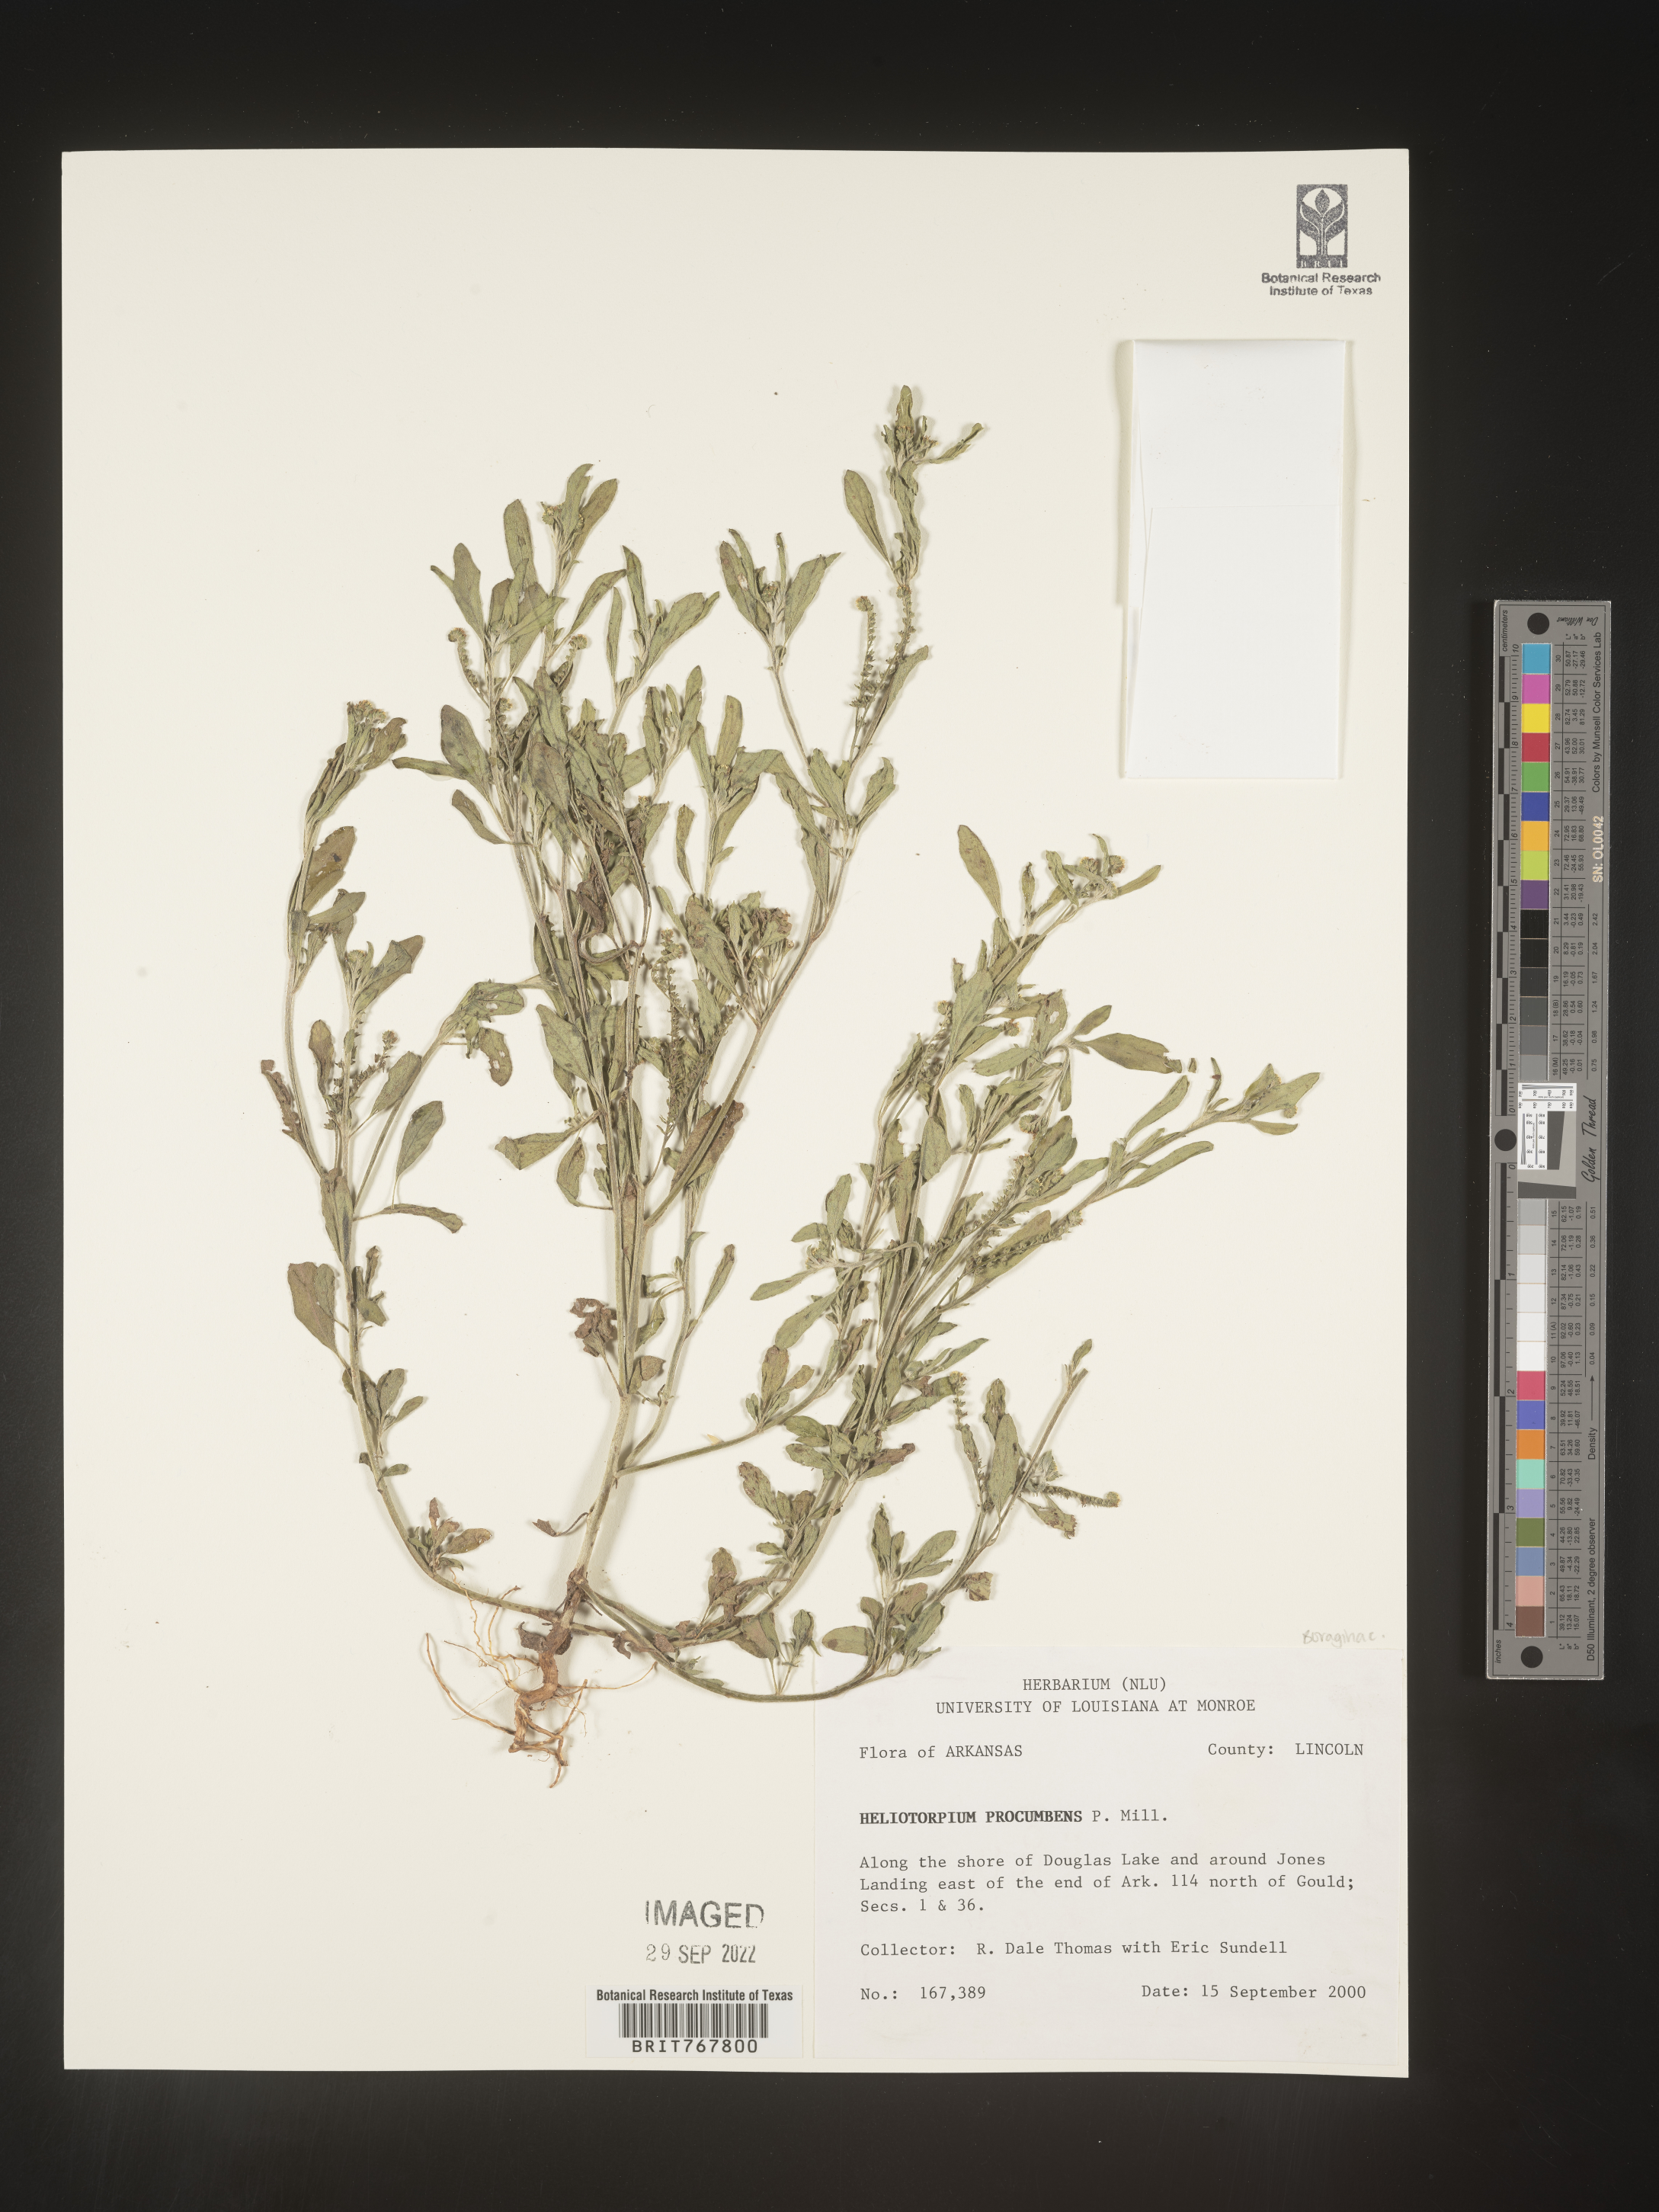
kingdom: Plantae
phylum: Tracheophyta
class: Magnoliopsida
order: Boraginales
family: Heliotropiaceae
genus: Heliotropium
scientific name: Heliotropium
